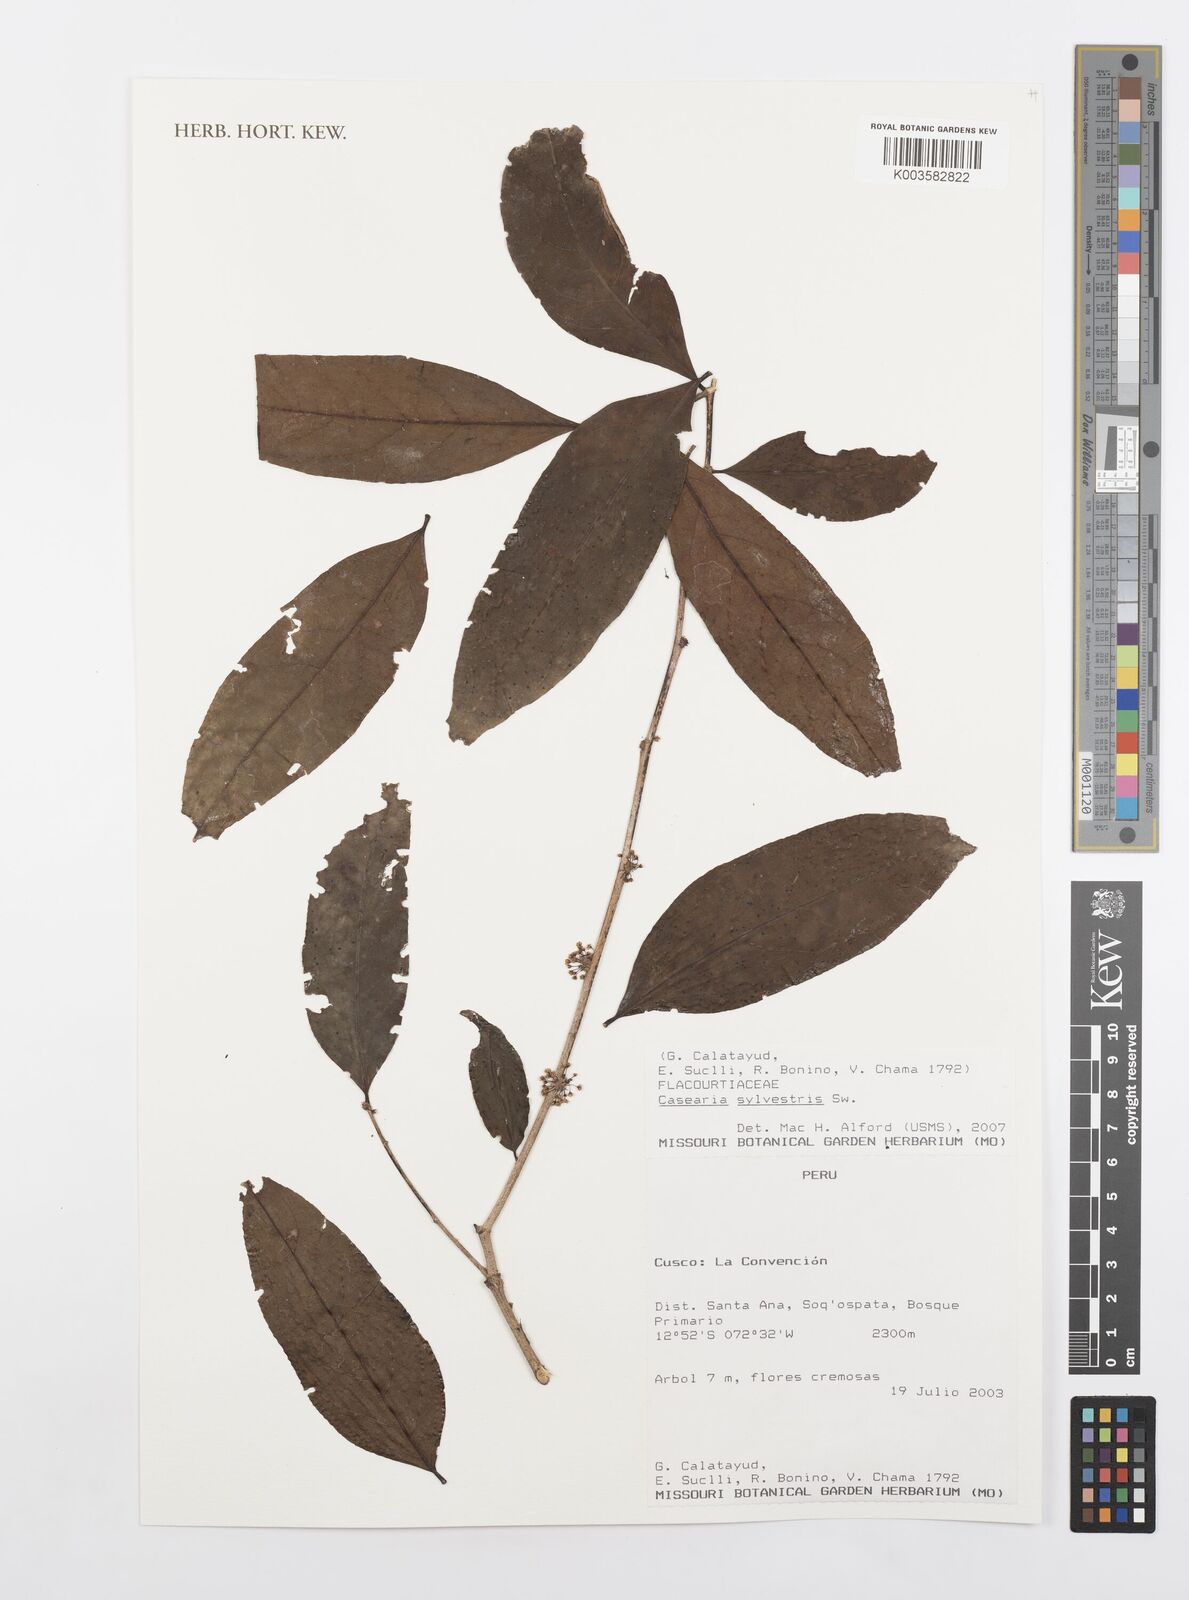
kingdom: Plantae
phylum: Tracheophyta
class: Magnoliopsida
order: Malpighiales
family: Salicaceae
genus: Casearia
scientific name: Casearia sylvestris
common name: Wild sage
